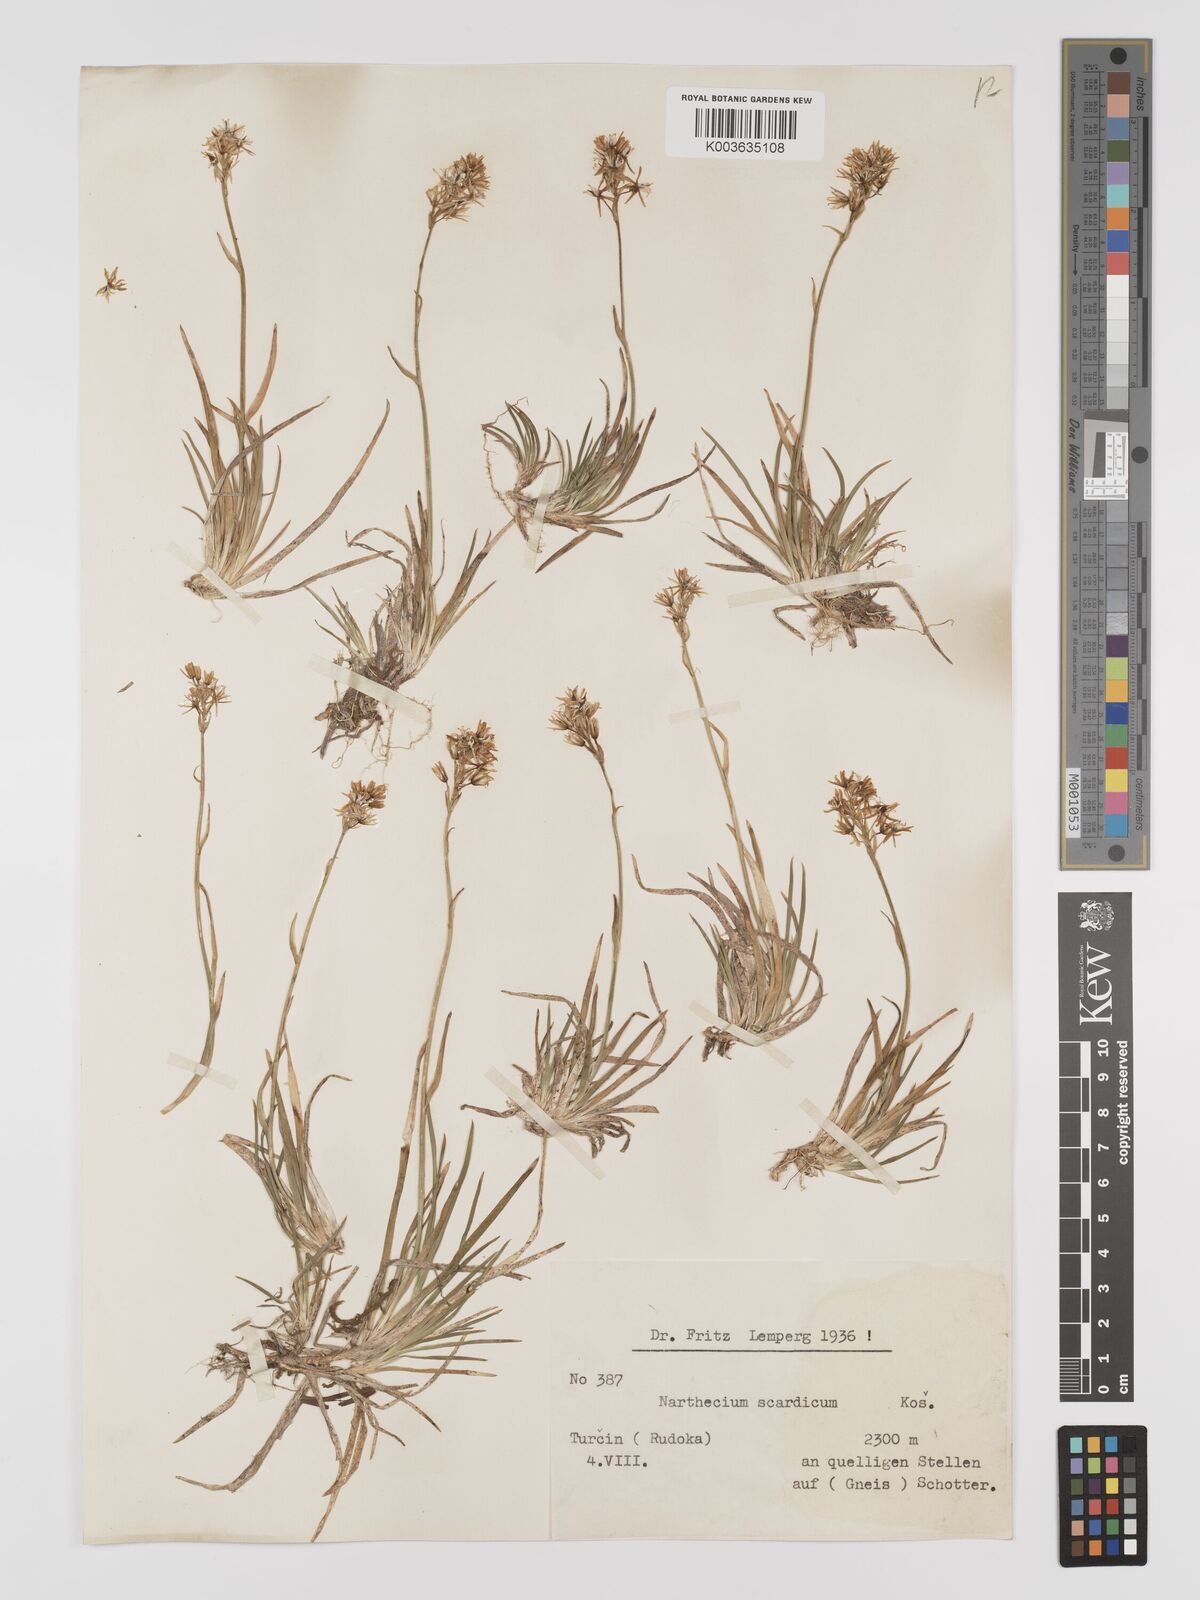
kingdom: Plantae
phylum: Tracheophyta
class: Liliopsida
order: Dioscoreales
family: Nartheciaceae
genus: Narthecium
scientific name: Narthecium scardicum
